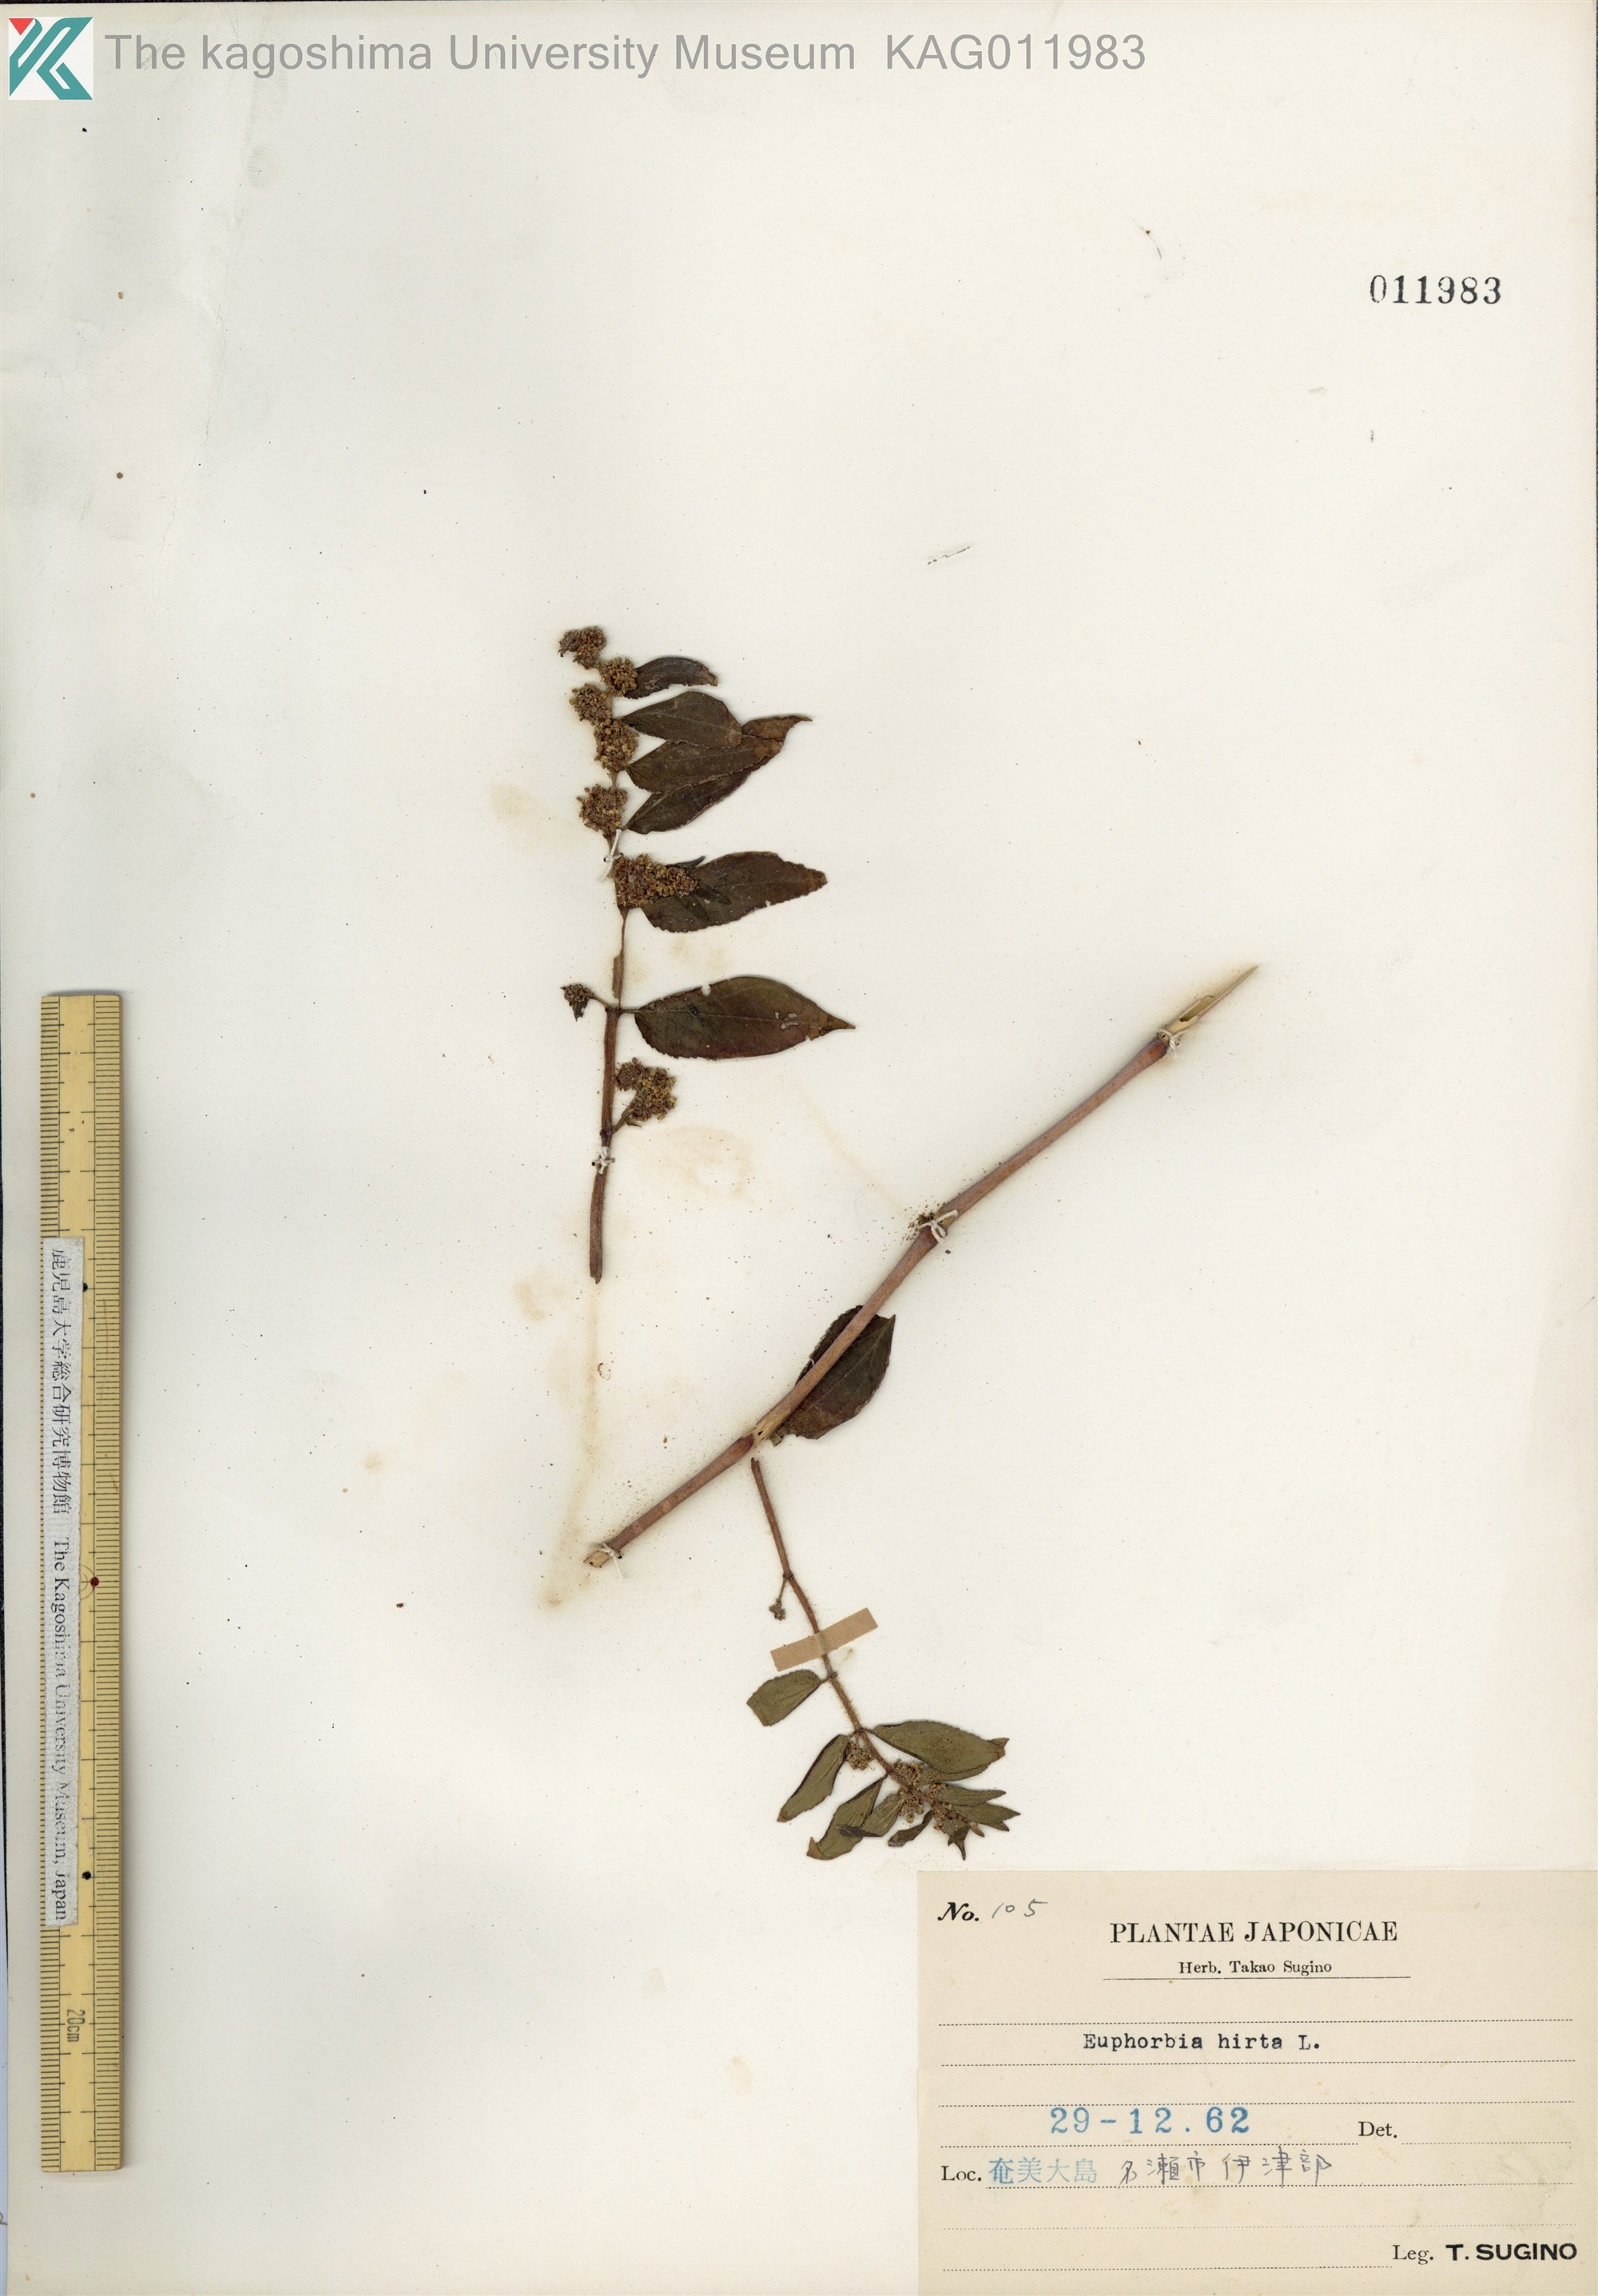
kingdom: Plantae
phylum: Tracheophyta
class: Magnoliopsida
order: Malpighiales
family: Euphorbiaceae
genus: Euphorbia
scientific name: Euphorbia hirta
